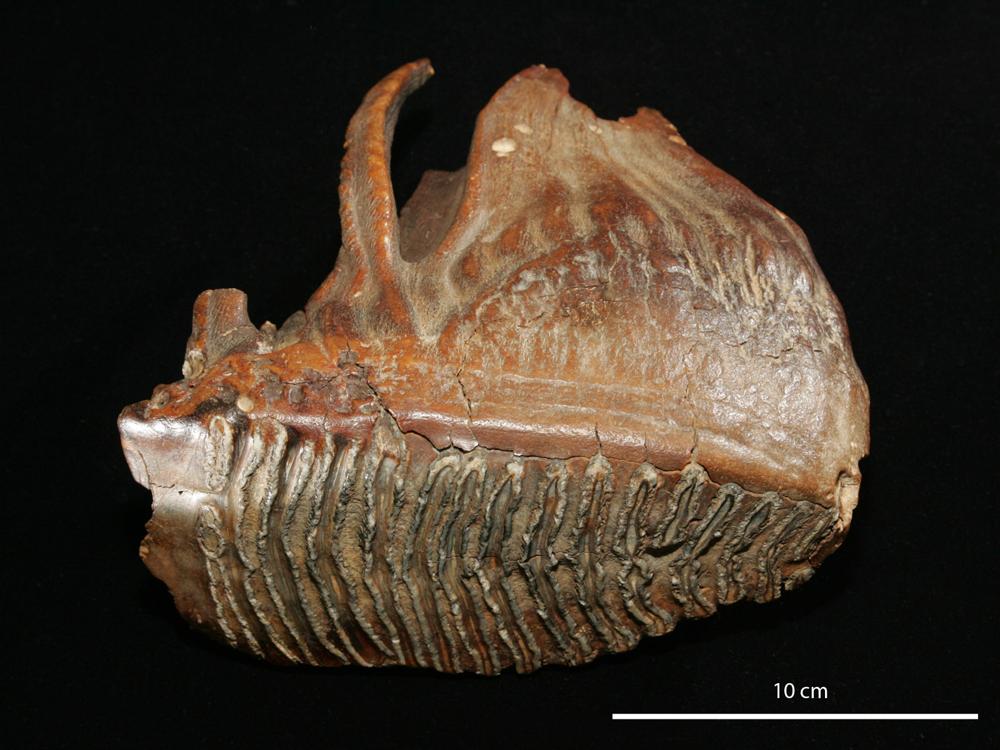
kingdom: Animalia
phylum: Chordata
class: Mammalia
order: Proboscidea
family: Elephantidae
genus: Mammuthus
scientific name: Mammuthus primigenius
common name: Wooly mammoth
